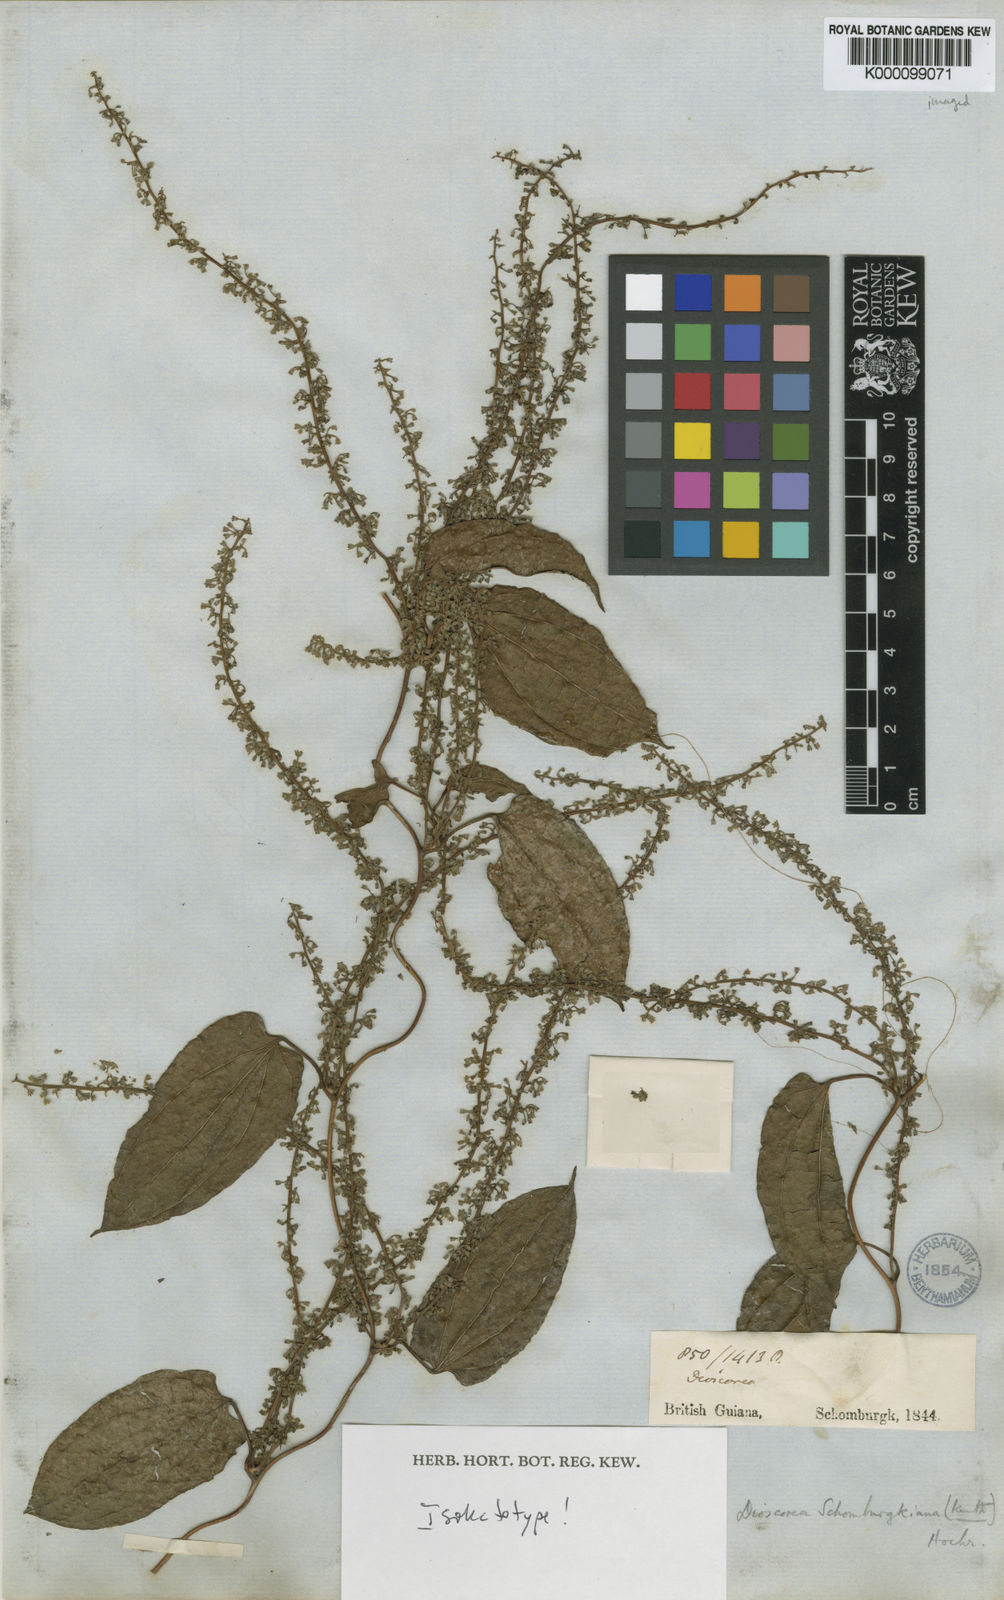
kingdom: Plantae
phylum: Tracheophyta
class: Liliopsida
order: Dioscoreales
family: Dioscoreaceae
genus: Dioscorea
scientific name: Dioscorea
